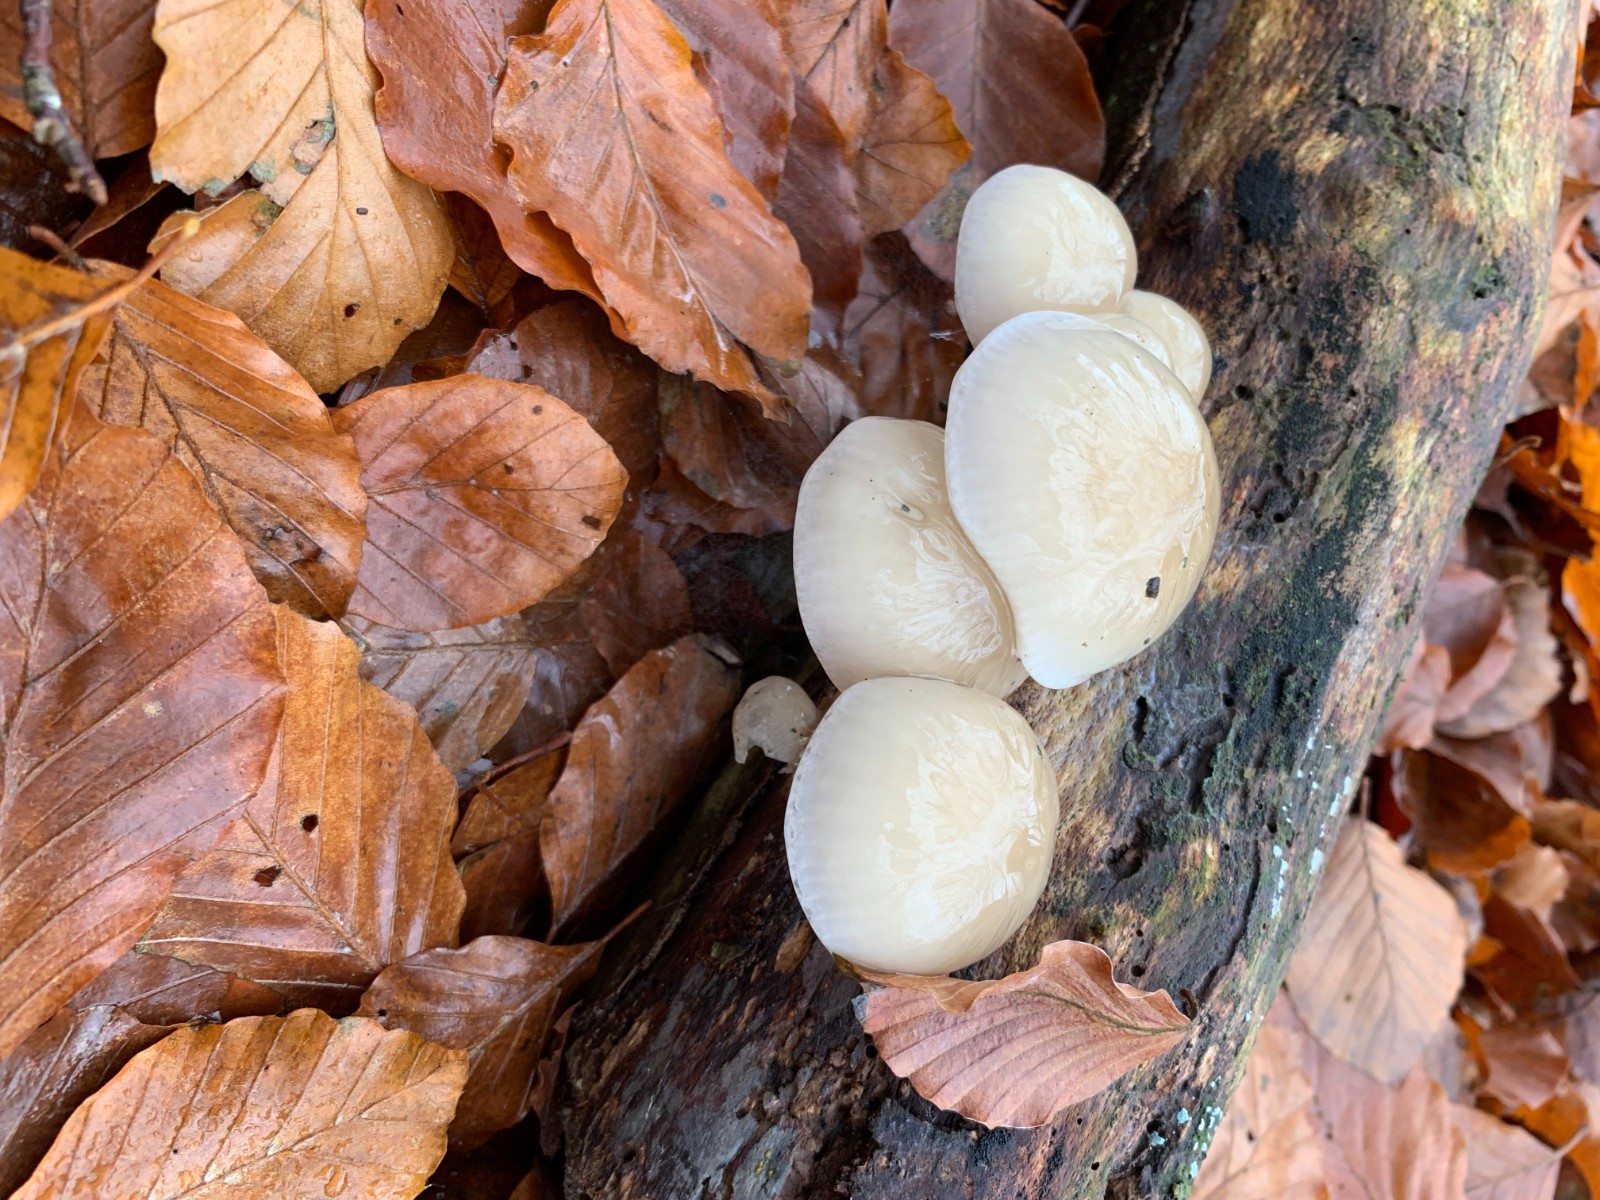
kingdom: Fungi
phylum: Basidiomycota
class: Agaricomycetes
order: Agaricales
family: Physalacriaceae
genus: Mucidula
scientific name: Mucidula mucida
